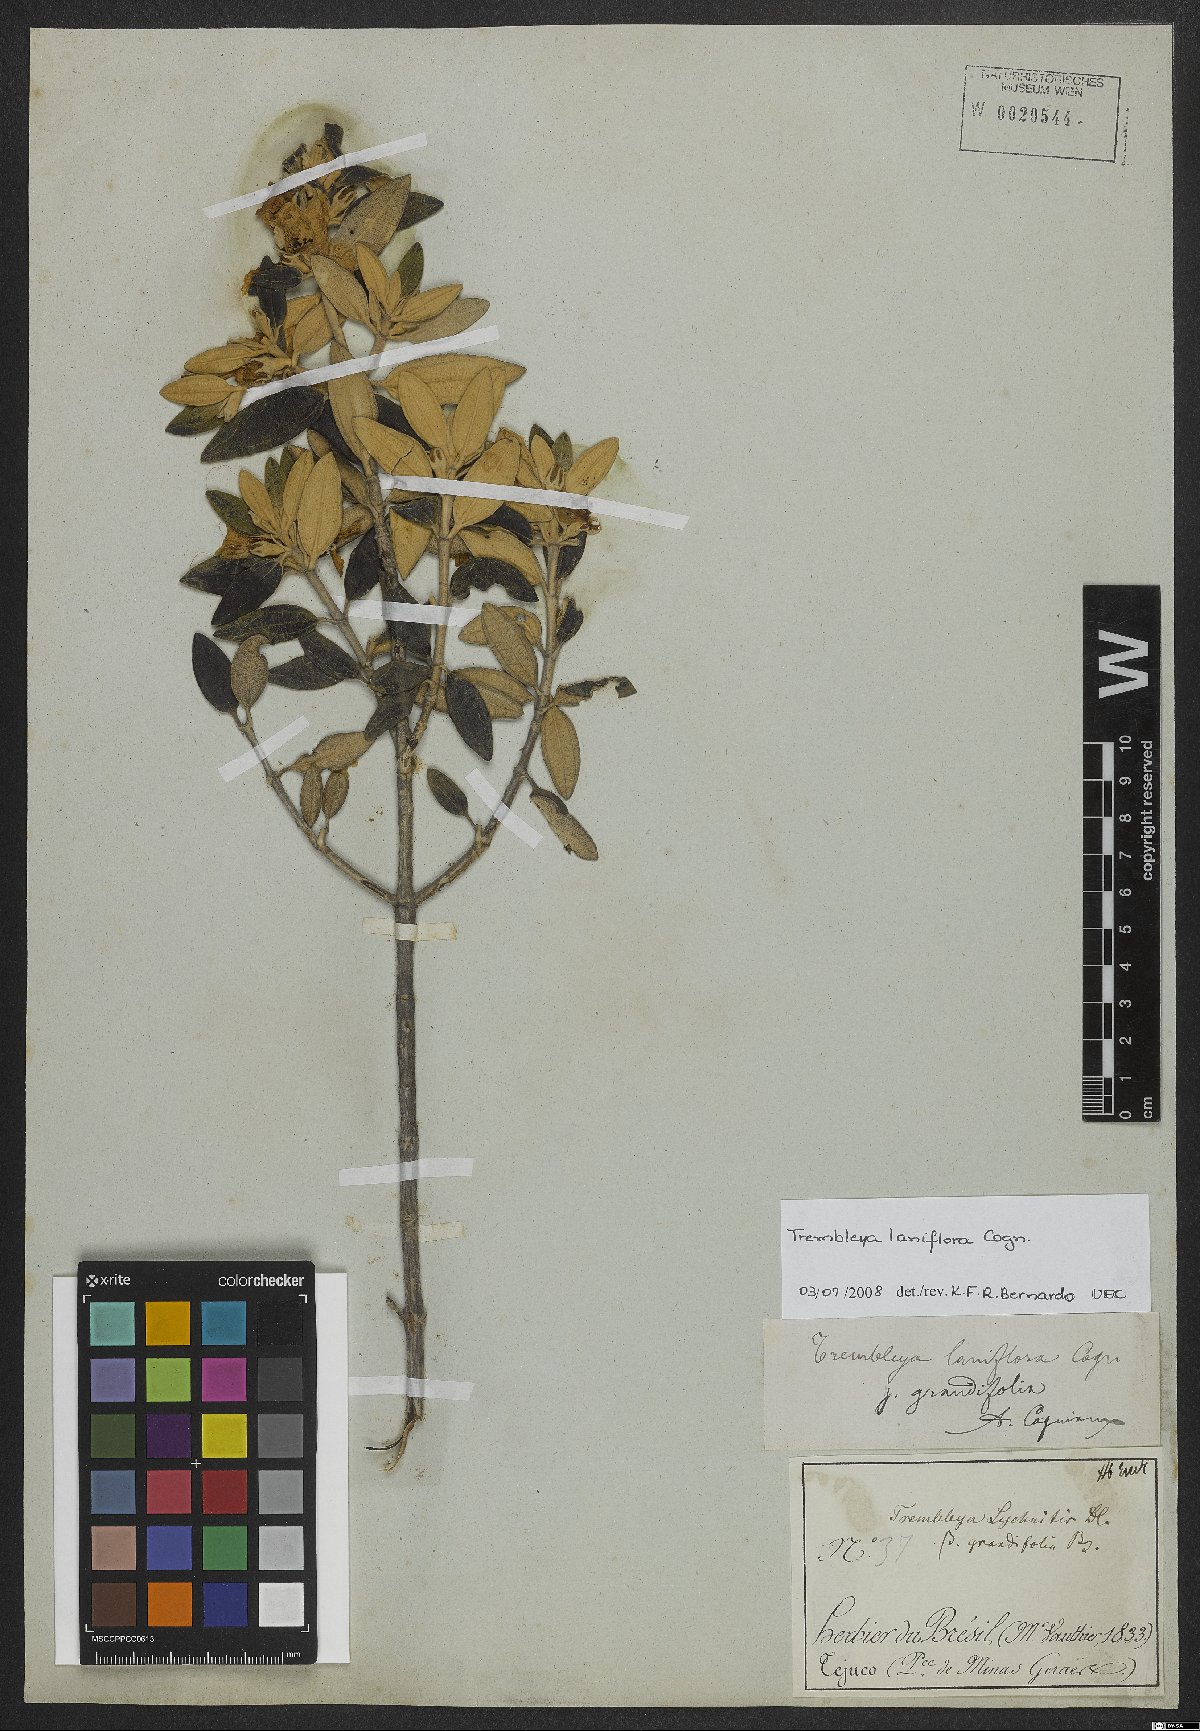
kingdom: Plantae
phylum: Tracheophyta
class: Magnoliopsida
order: Myrtales
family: Melastomataceae
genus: Microlicia
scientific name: Microlicia laniflora
